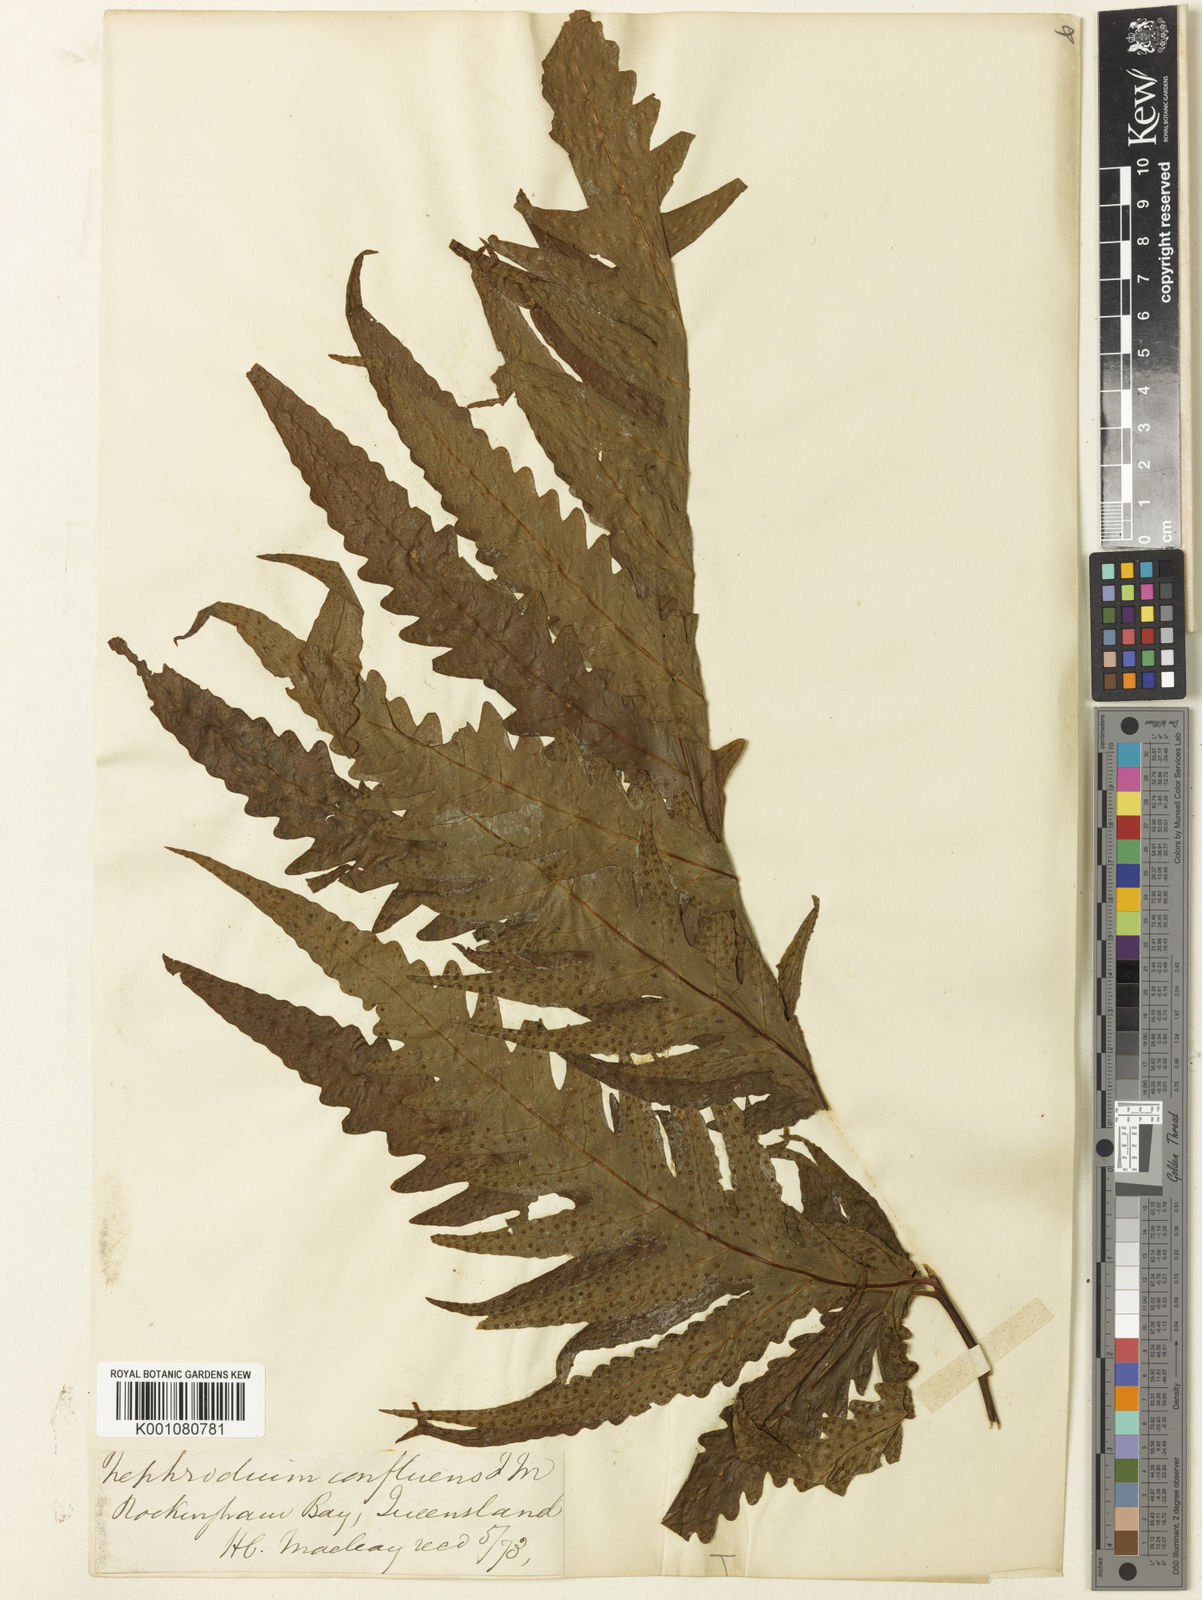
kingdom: Plantae
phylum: Tracheophyta
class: Polypodiopsida
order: Polypodiales
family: Tectariaceae
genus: Tectaria
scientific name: Tectaria confluens
